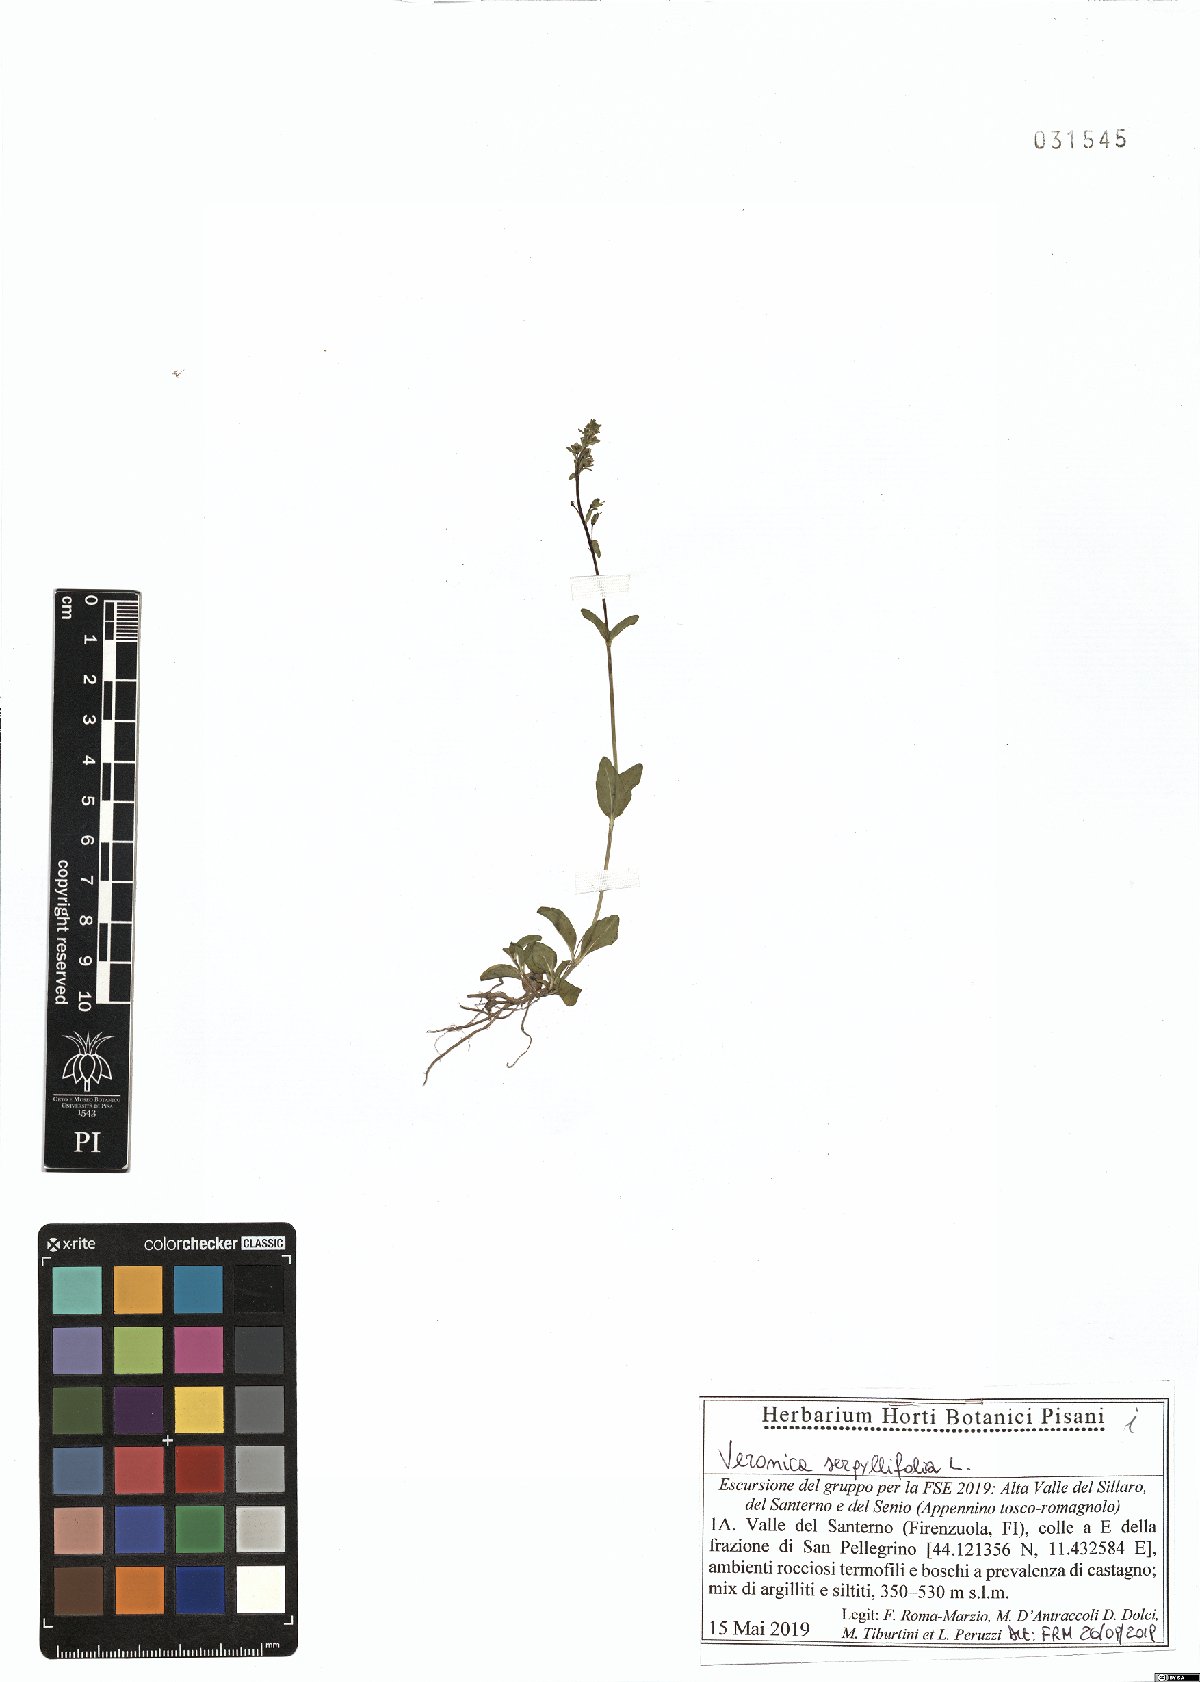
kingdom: Plantae
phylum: Tracheophyta
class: Magnoliopsida
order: Lamiales
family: Plantaginaceae
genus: Veronica
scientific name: Veronica serpyllifolia
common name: Thyme-leaved speedwell
